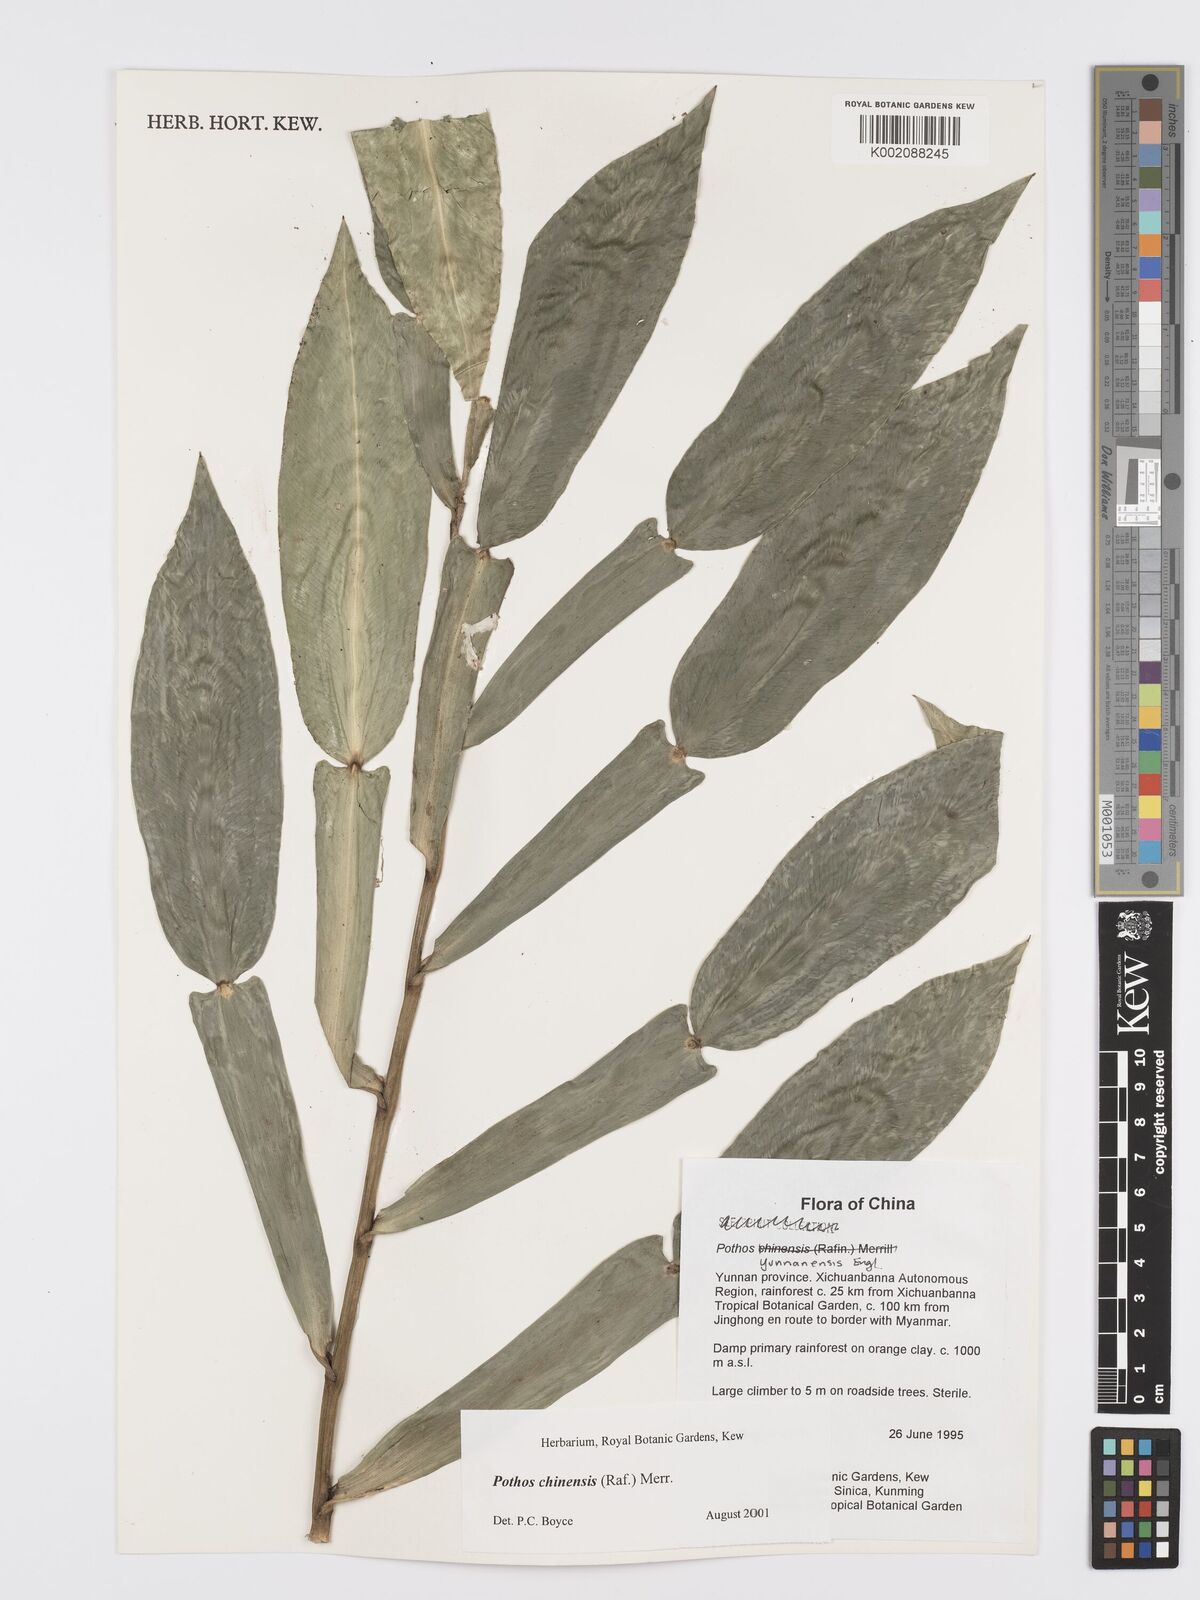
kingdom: Plantae
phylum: Tracheophyta
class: Liliopsida
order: Alismatales
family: Araceae
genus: Pothos
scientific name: Pothos chinensis
